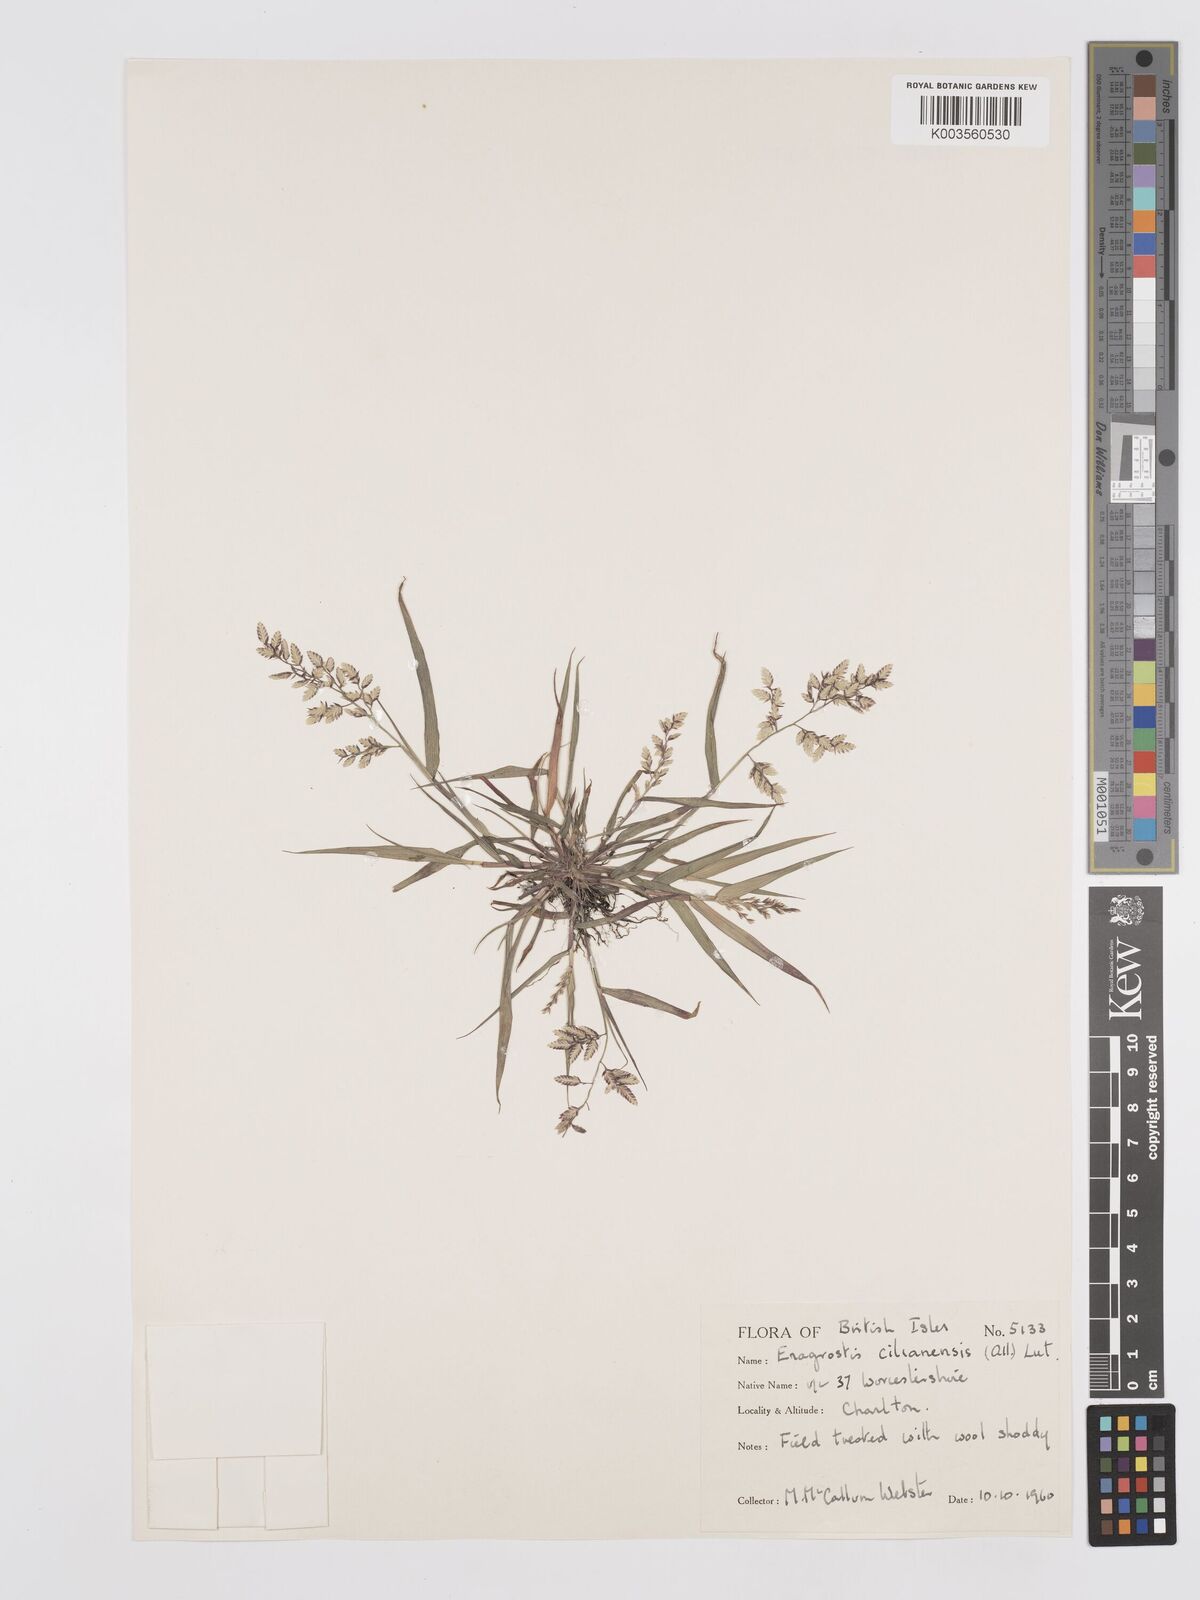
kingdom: Plantae
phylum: Tracheophyta
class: Liliopsida
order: Poales
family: Poaceae
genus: Eragrostis
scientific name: Eragrostis cilianensis
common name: Stinkgrass
